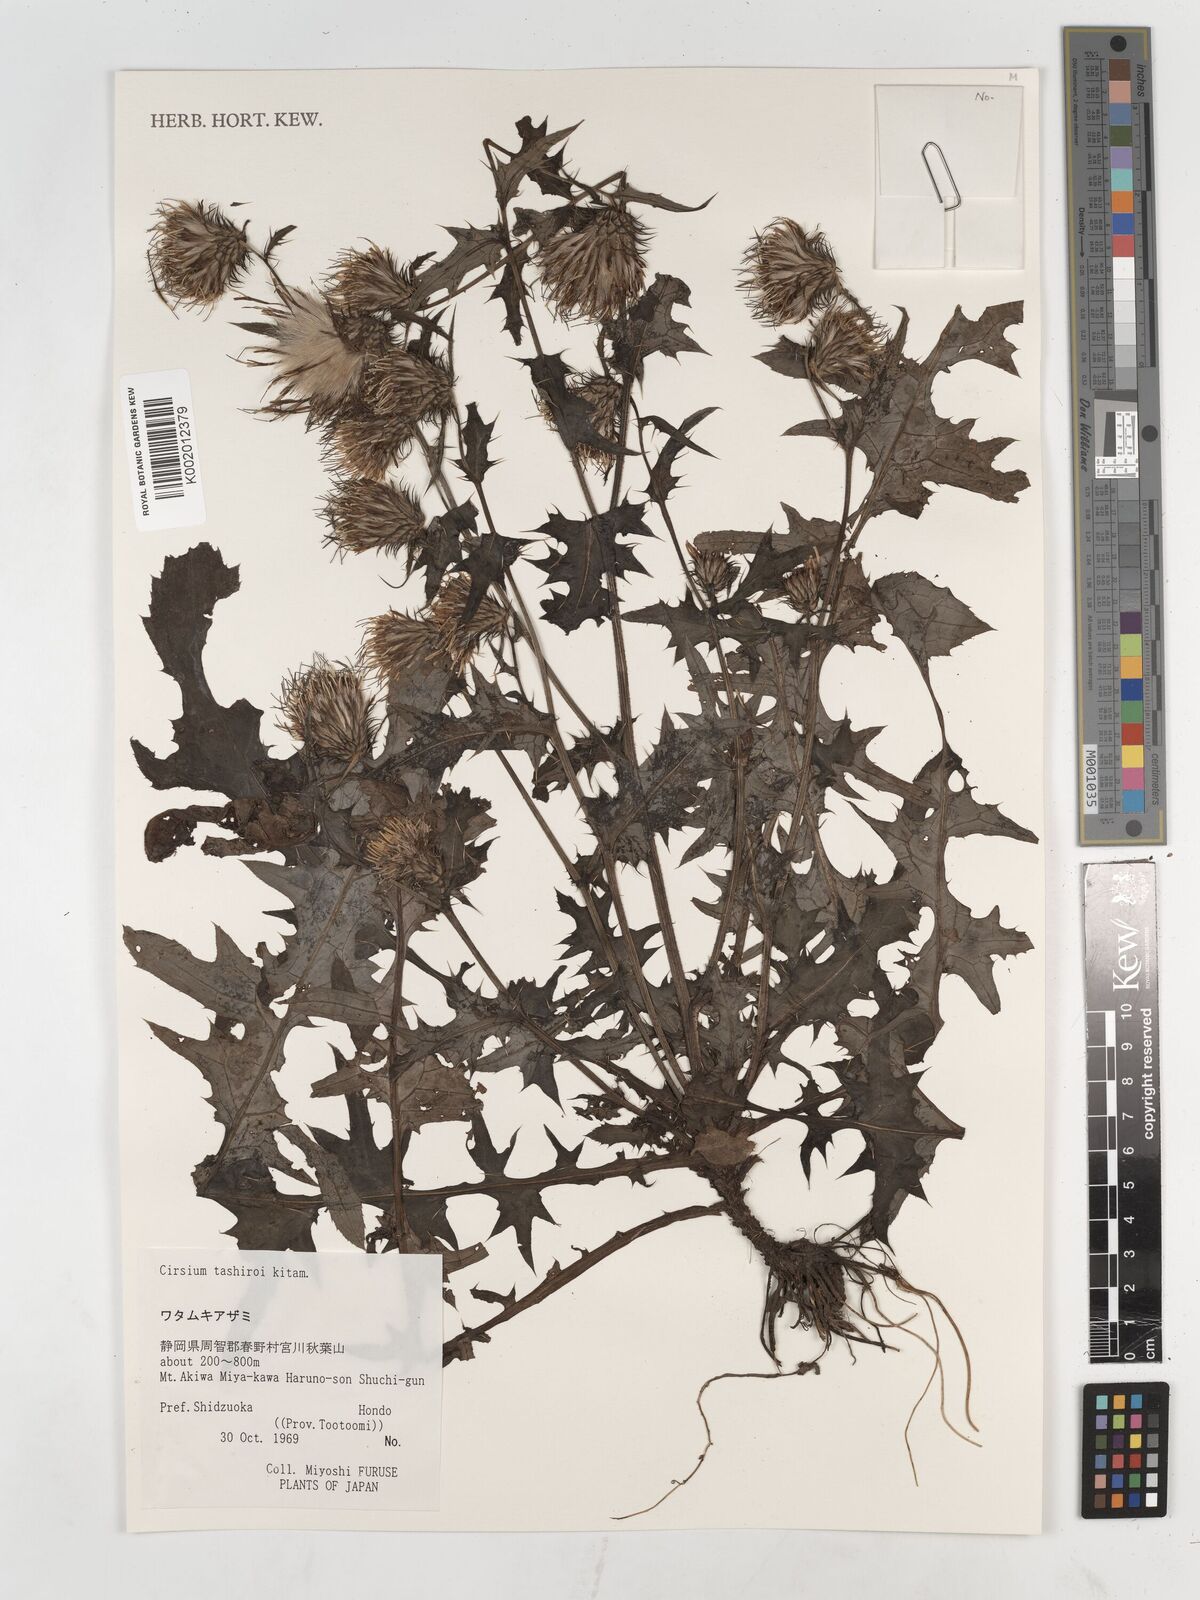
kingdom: Plantae
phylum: Tracheophyta
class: Magnoliopsida
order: Asterales
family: Asteraceae
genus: Cirsium
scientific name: Cirsium tashiroi
